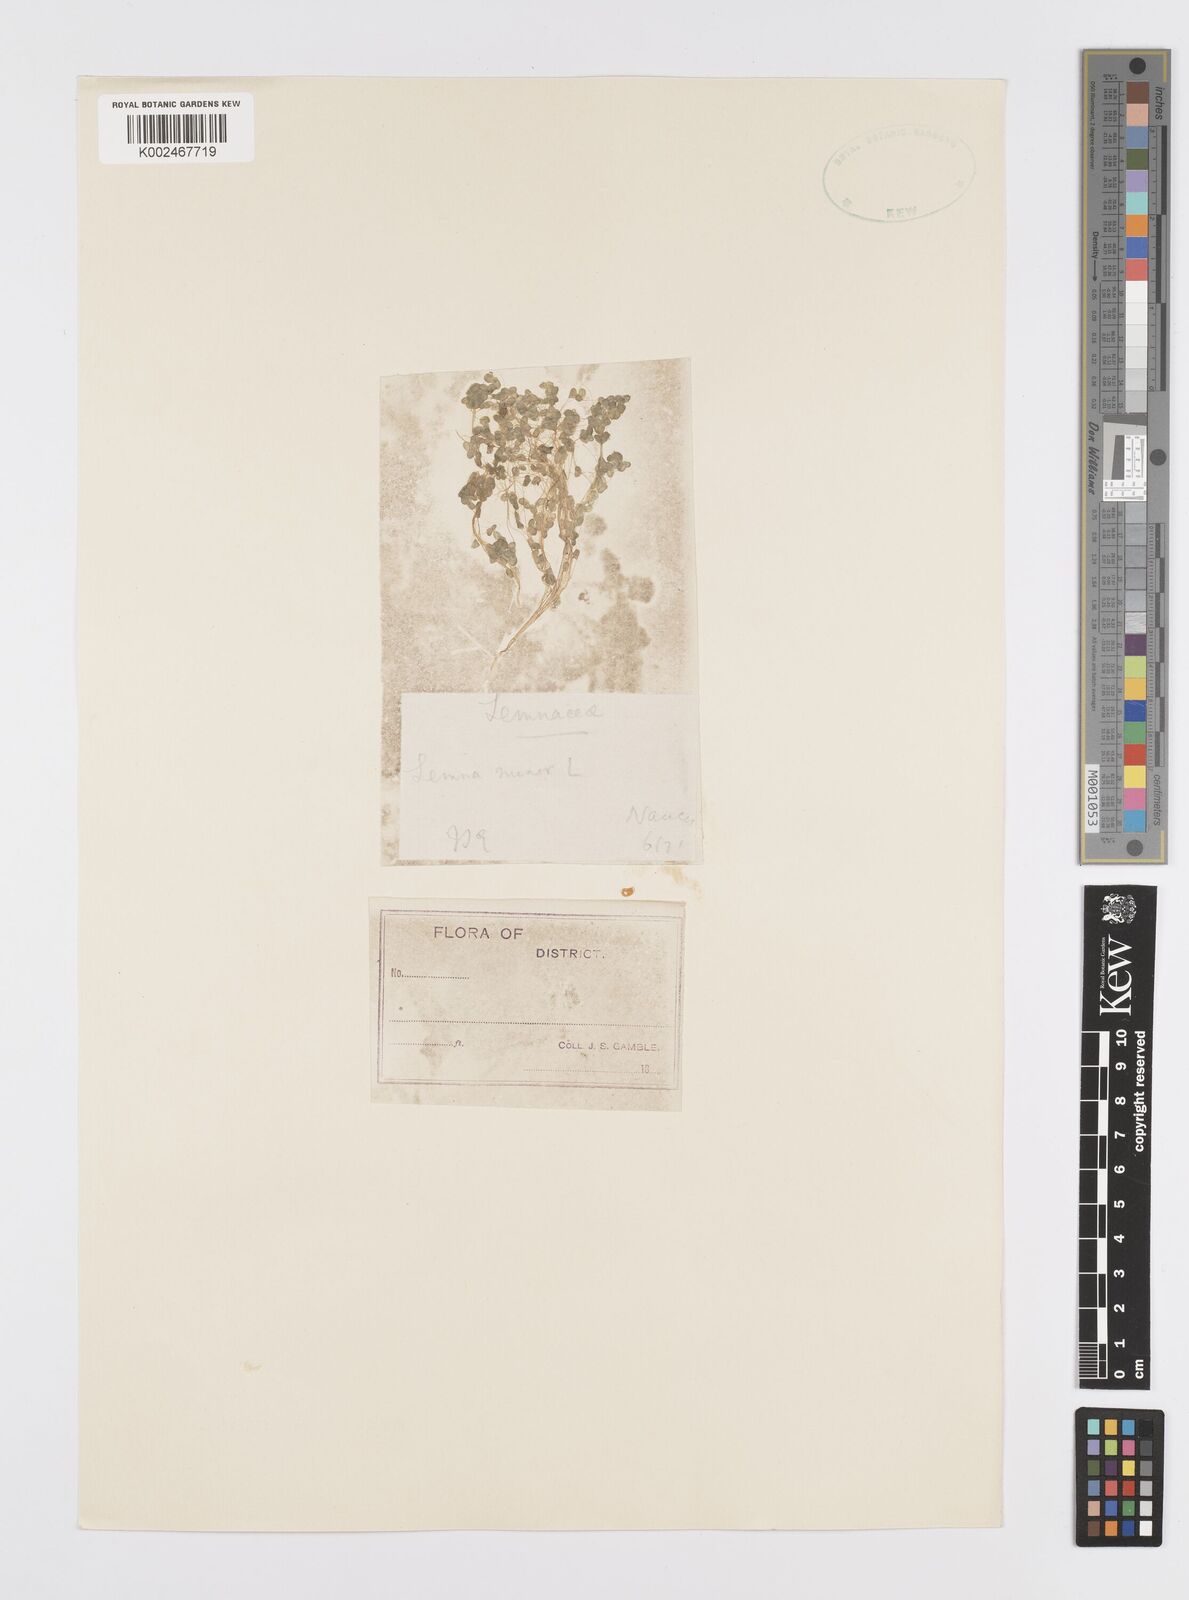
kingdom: Plantae
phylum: Tracheophyta
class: Liliopsida
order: Alismatales
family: Araceae
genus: Lemna
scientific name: Lemna minor
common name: Common duckweed
